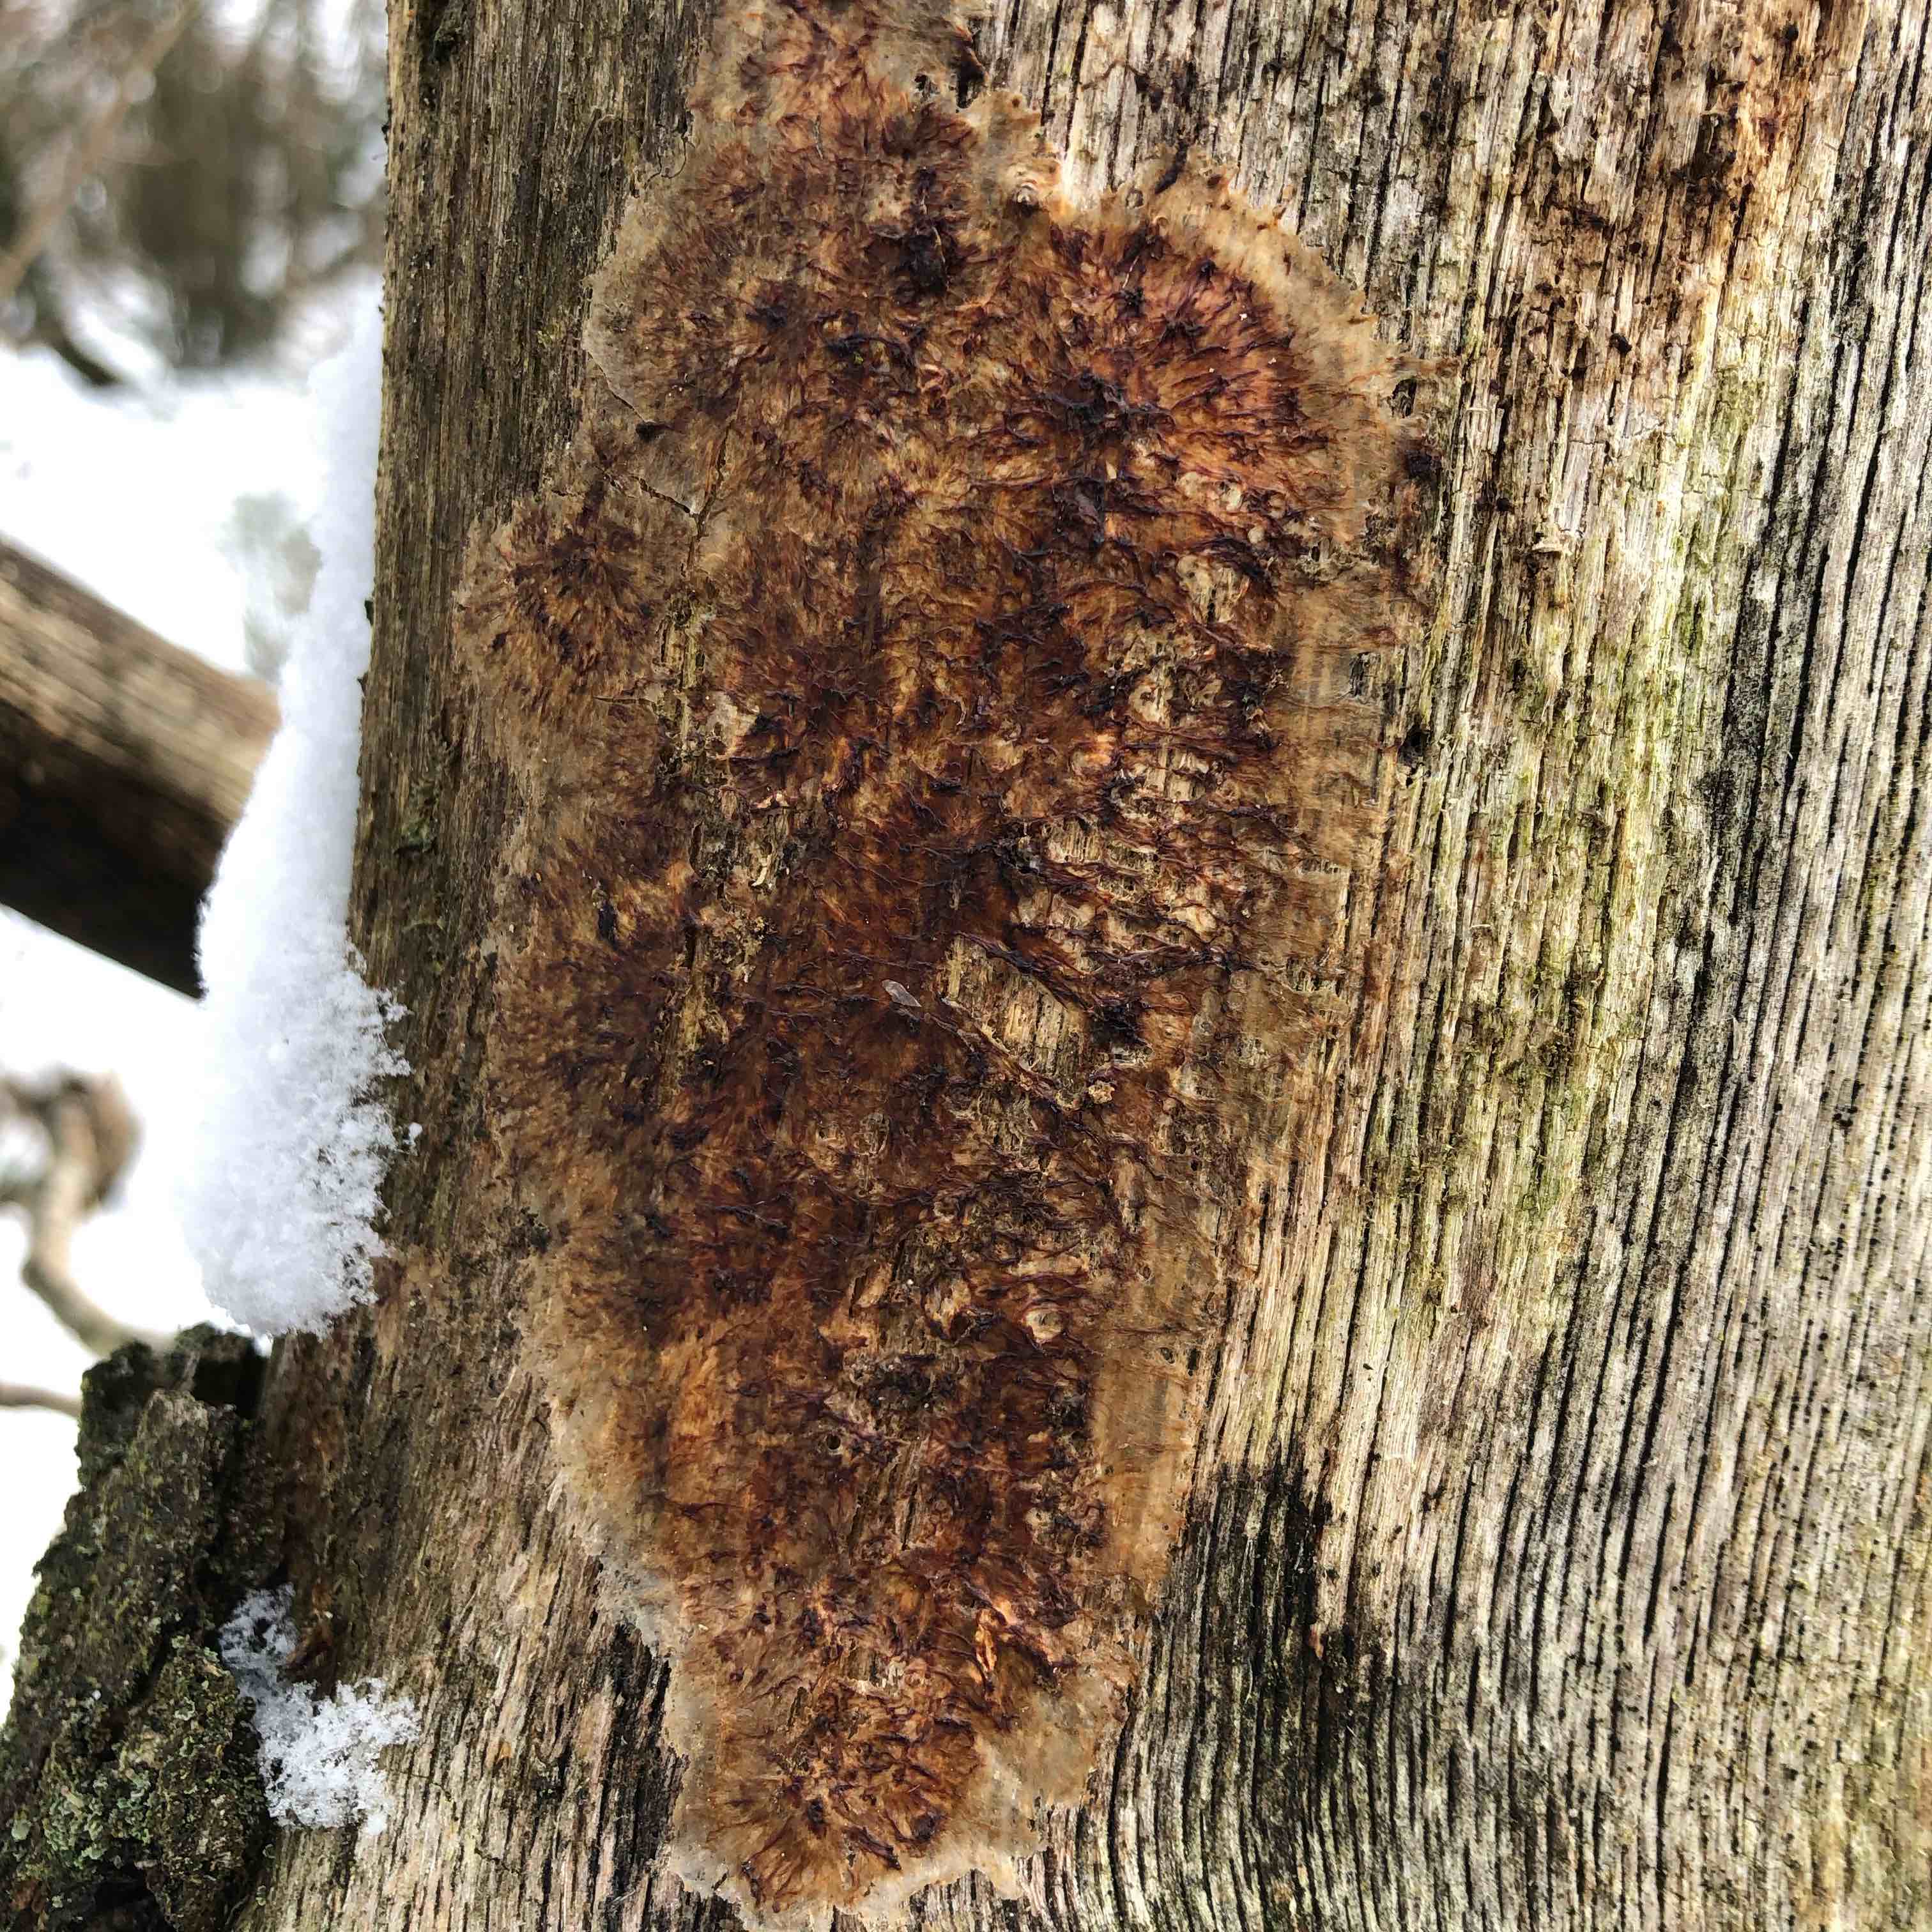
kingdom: Fungi
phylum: Basidiomycota
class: Agaricomycetes
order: Polyporales
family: Meruliaceae
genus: Phlebia
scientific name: Phlebia radiata
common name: stråle-åresvamp
